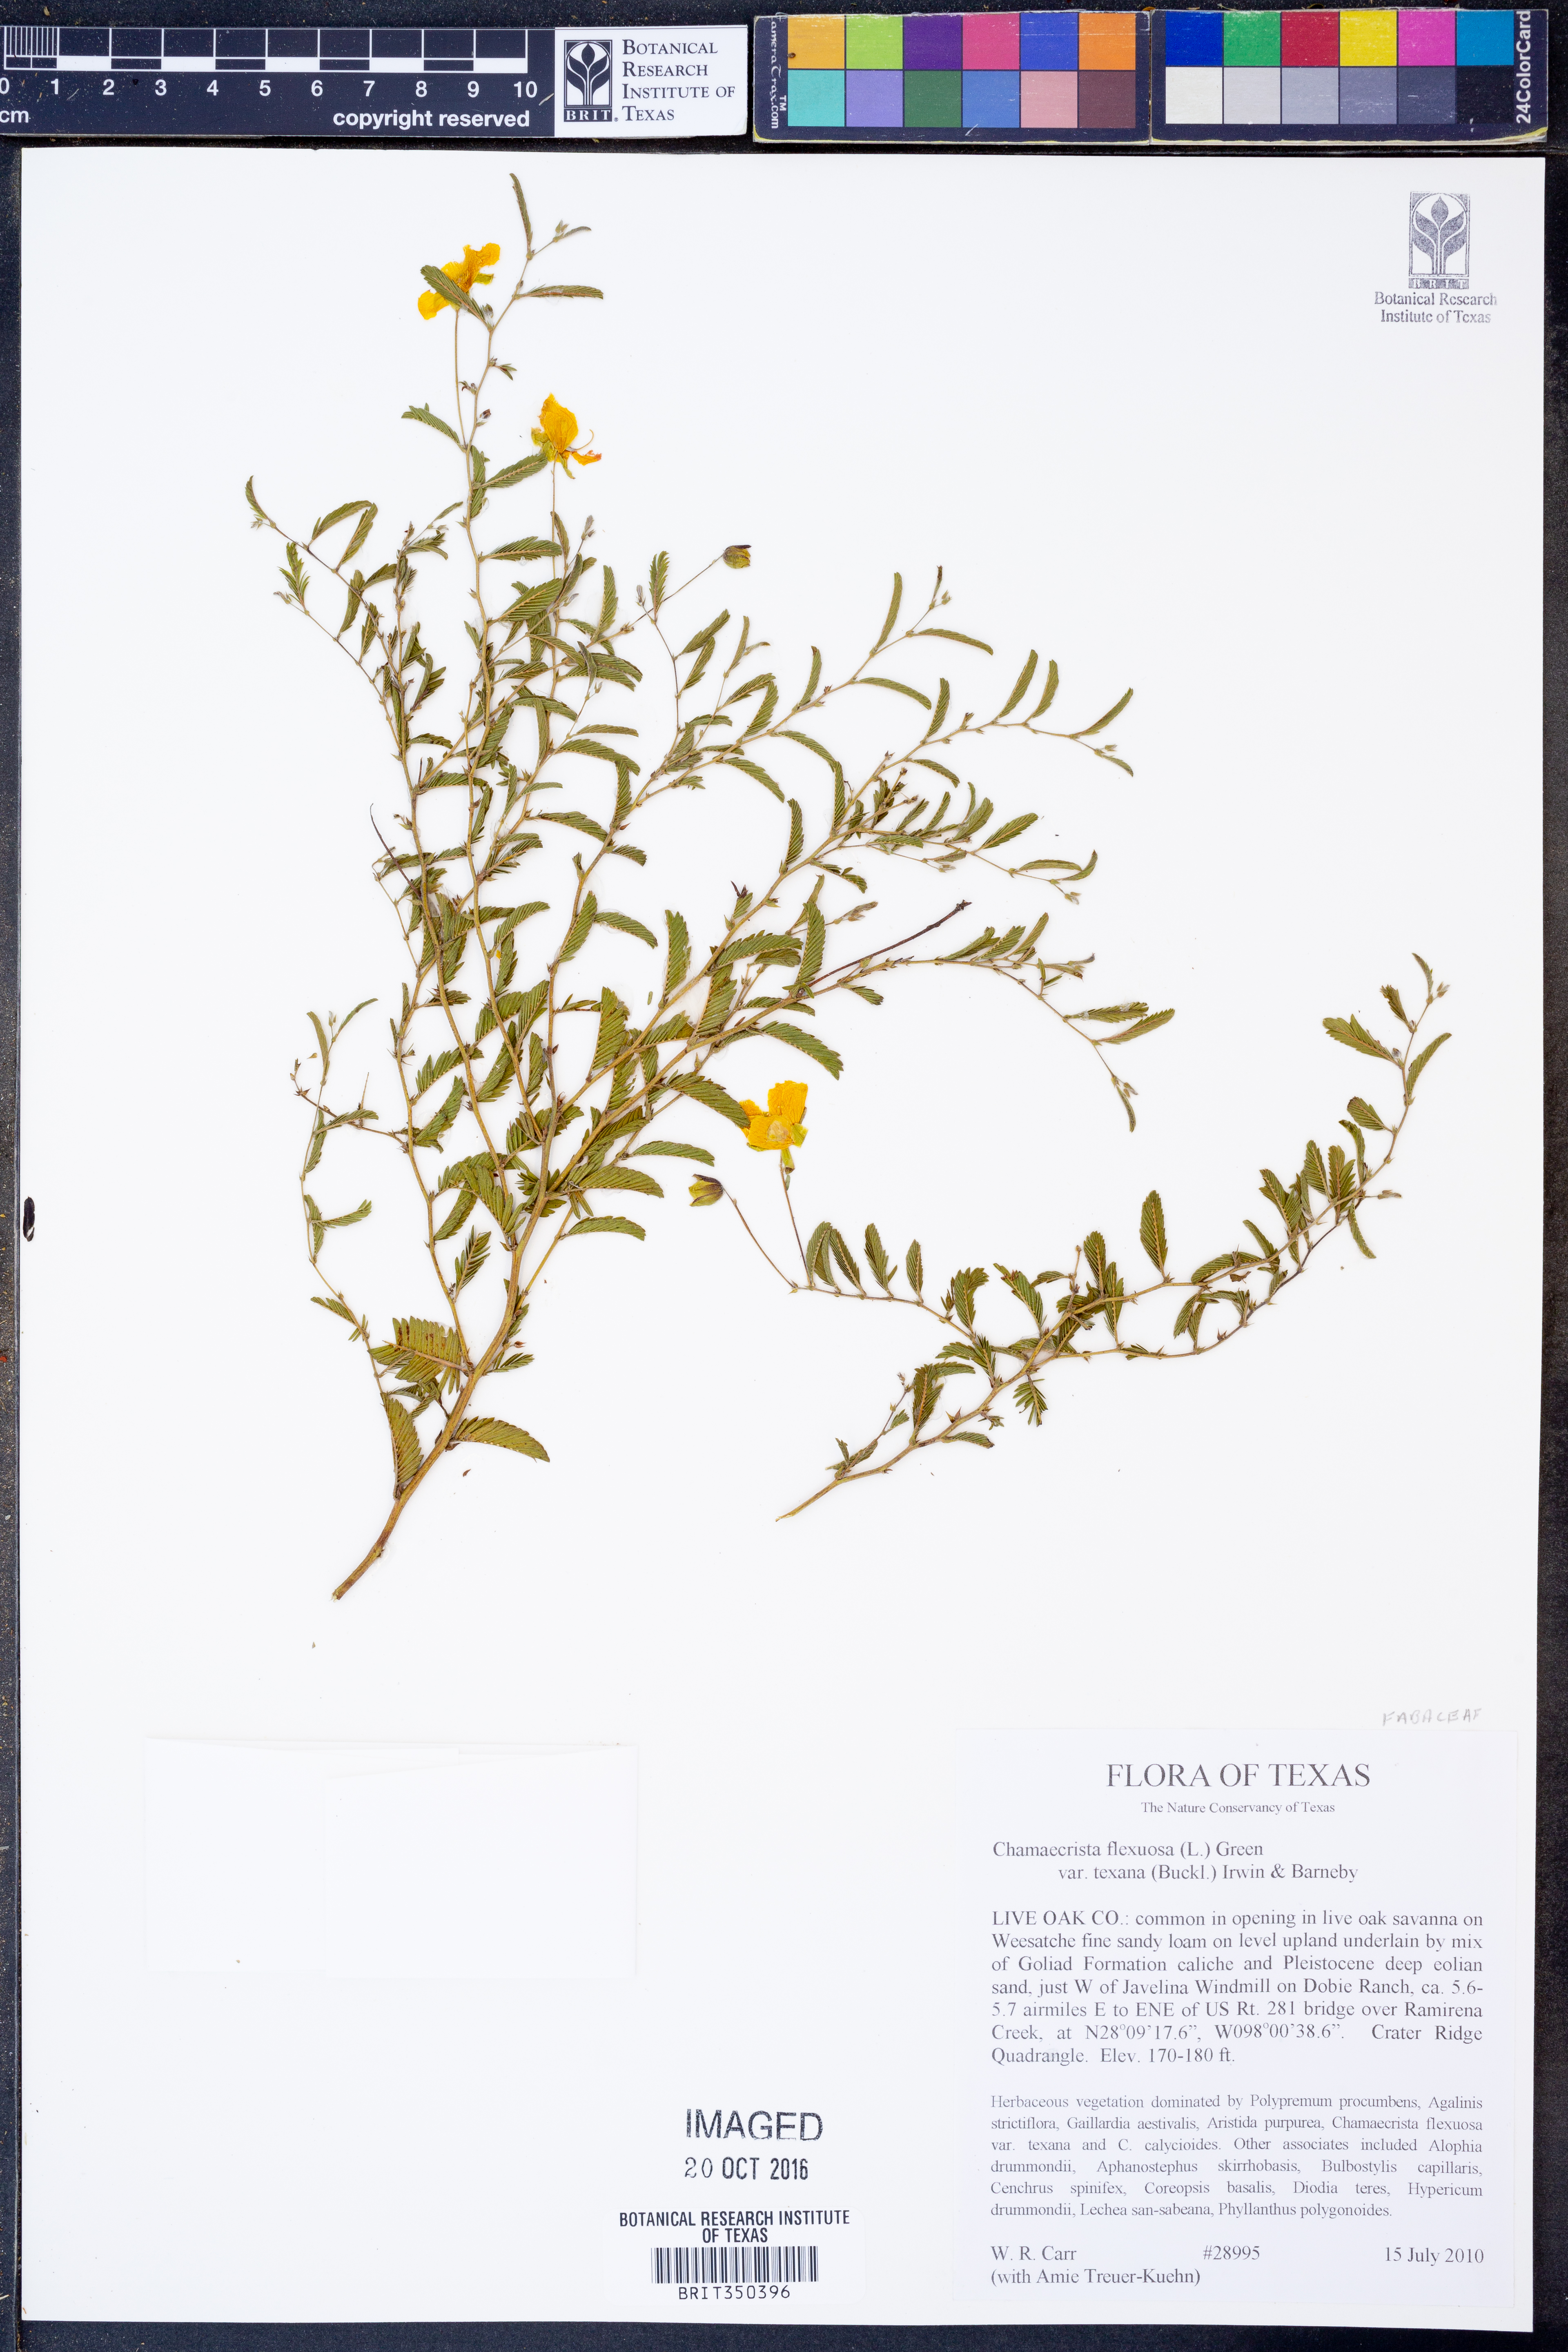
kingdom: Plantae
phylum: Tracheophyta
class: Magnoliopsida
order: Fabales
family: Fabaceae
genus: Chamaecrista
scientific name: Chamaecrista flexuosa
